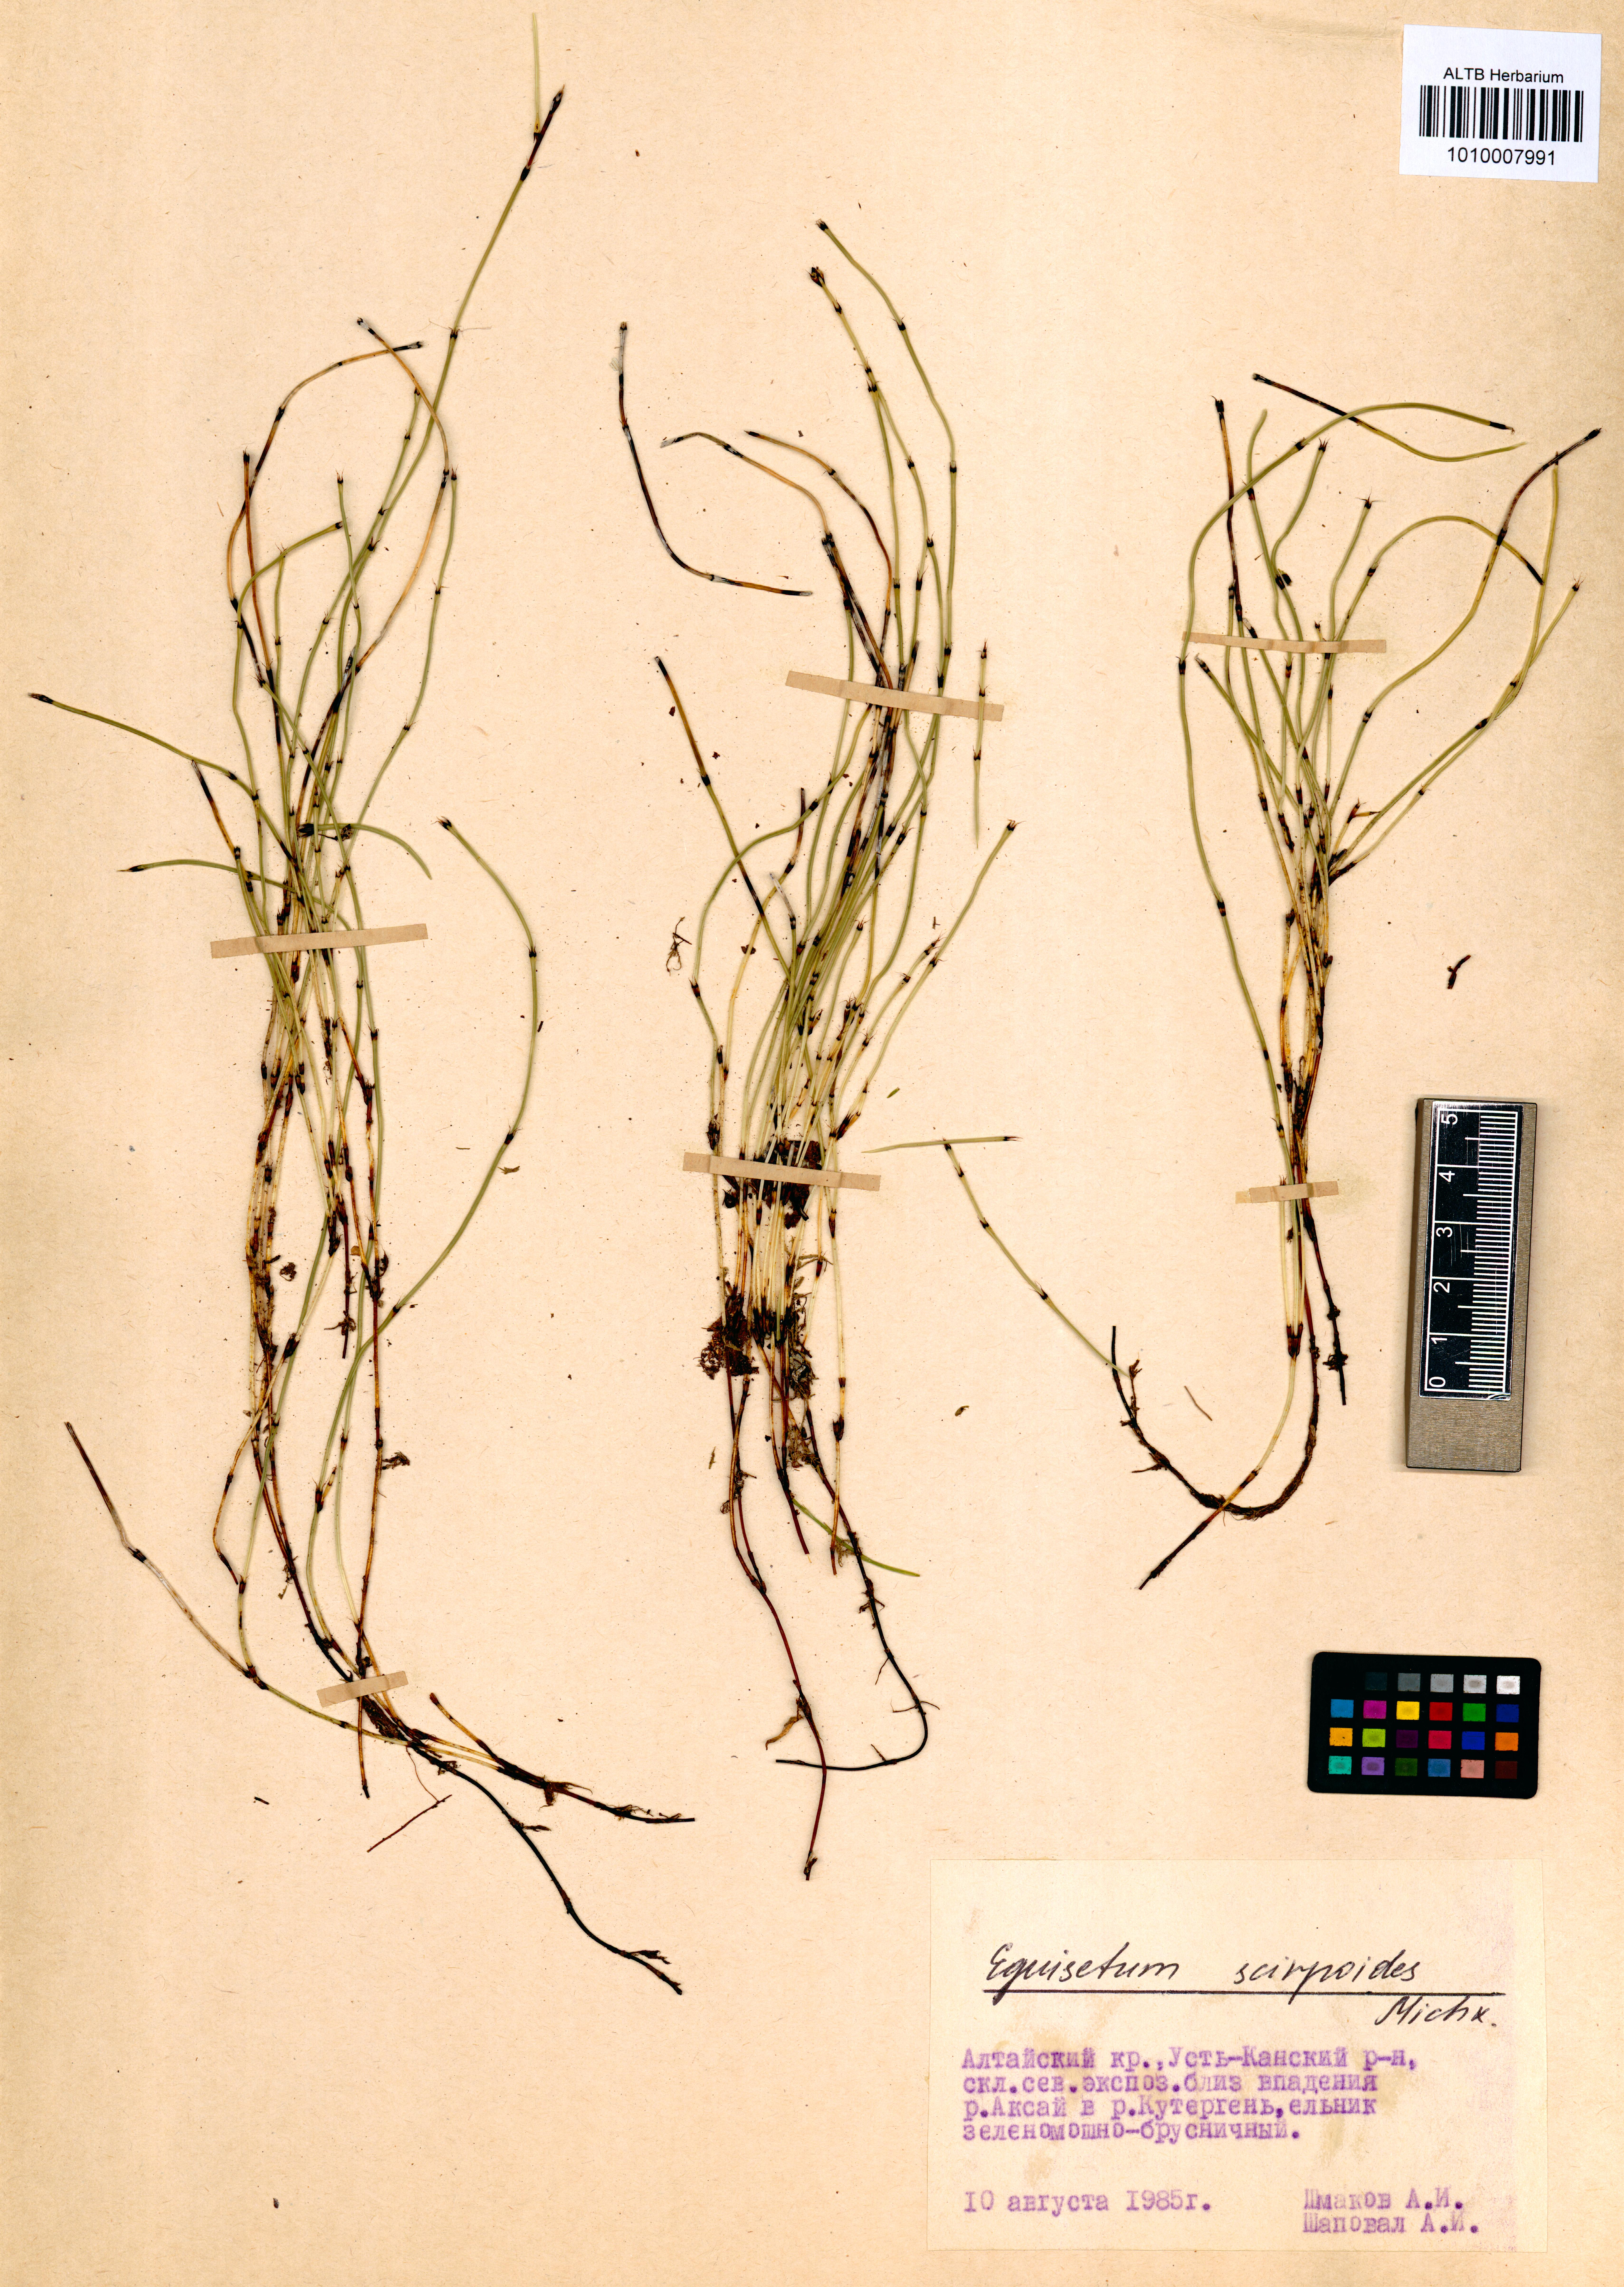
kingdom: Plantae
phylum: Tracheophyta
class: Polypodiopsida
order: Equisetales
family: Equisetaceae
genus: Equisetum
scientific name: Equisetum scirpoides
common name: Delicate horsetail
